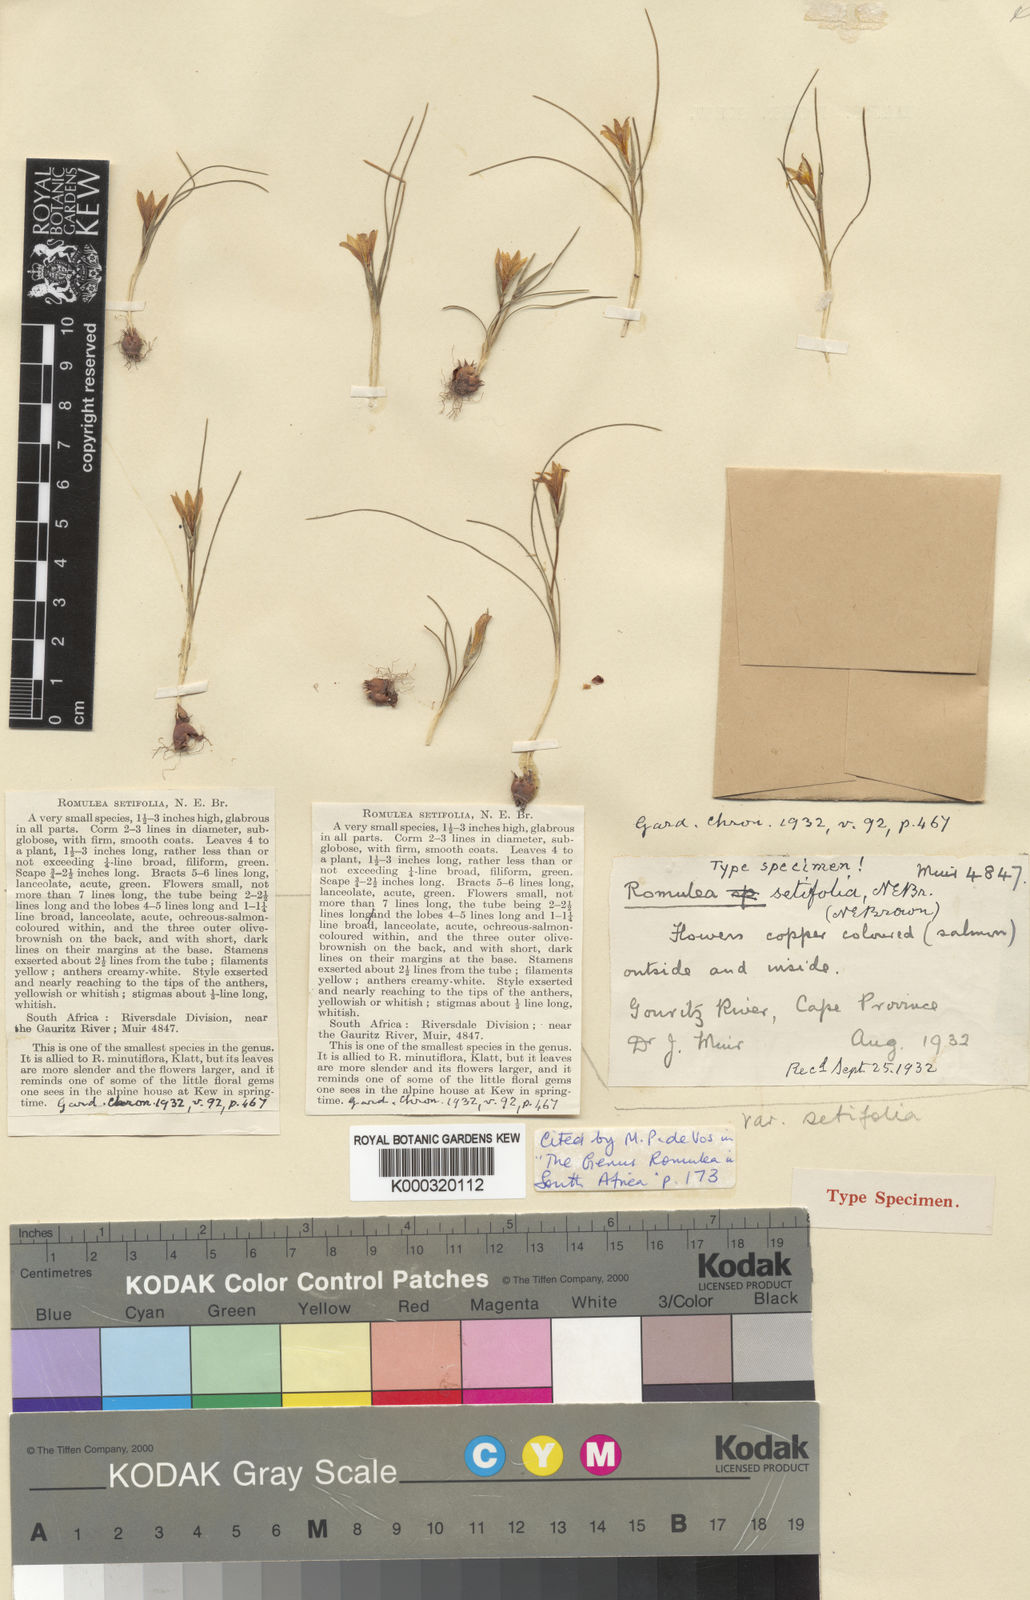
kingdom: Plantae
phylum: Tracheophyta
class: Liliopsida
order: Asparagales
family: Iridaceae
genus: Romulea
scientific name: Romulea setifolia
